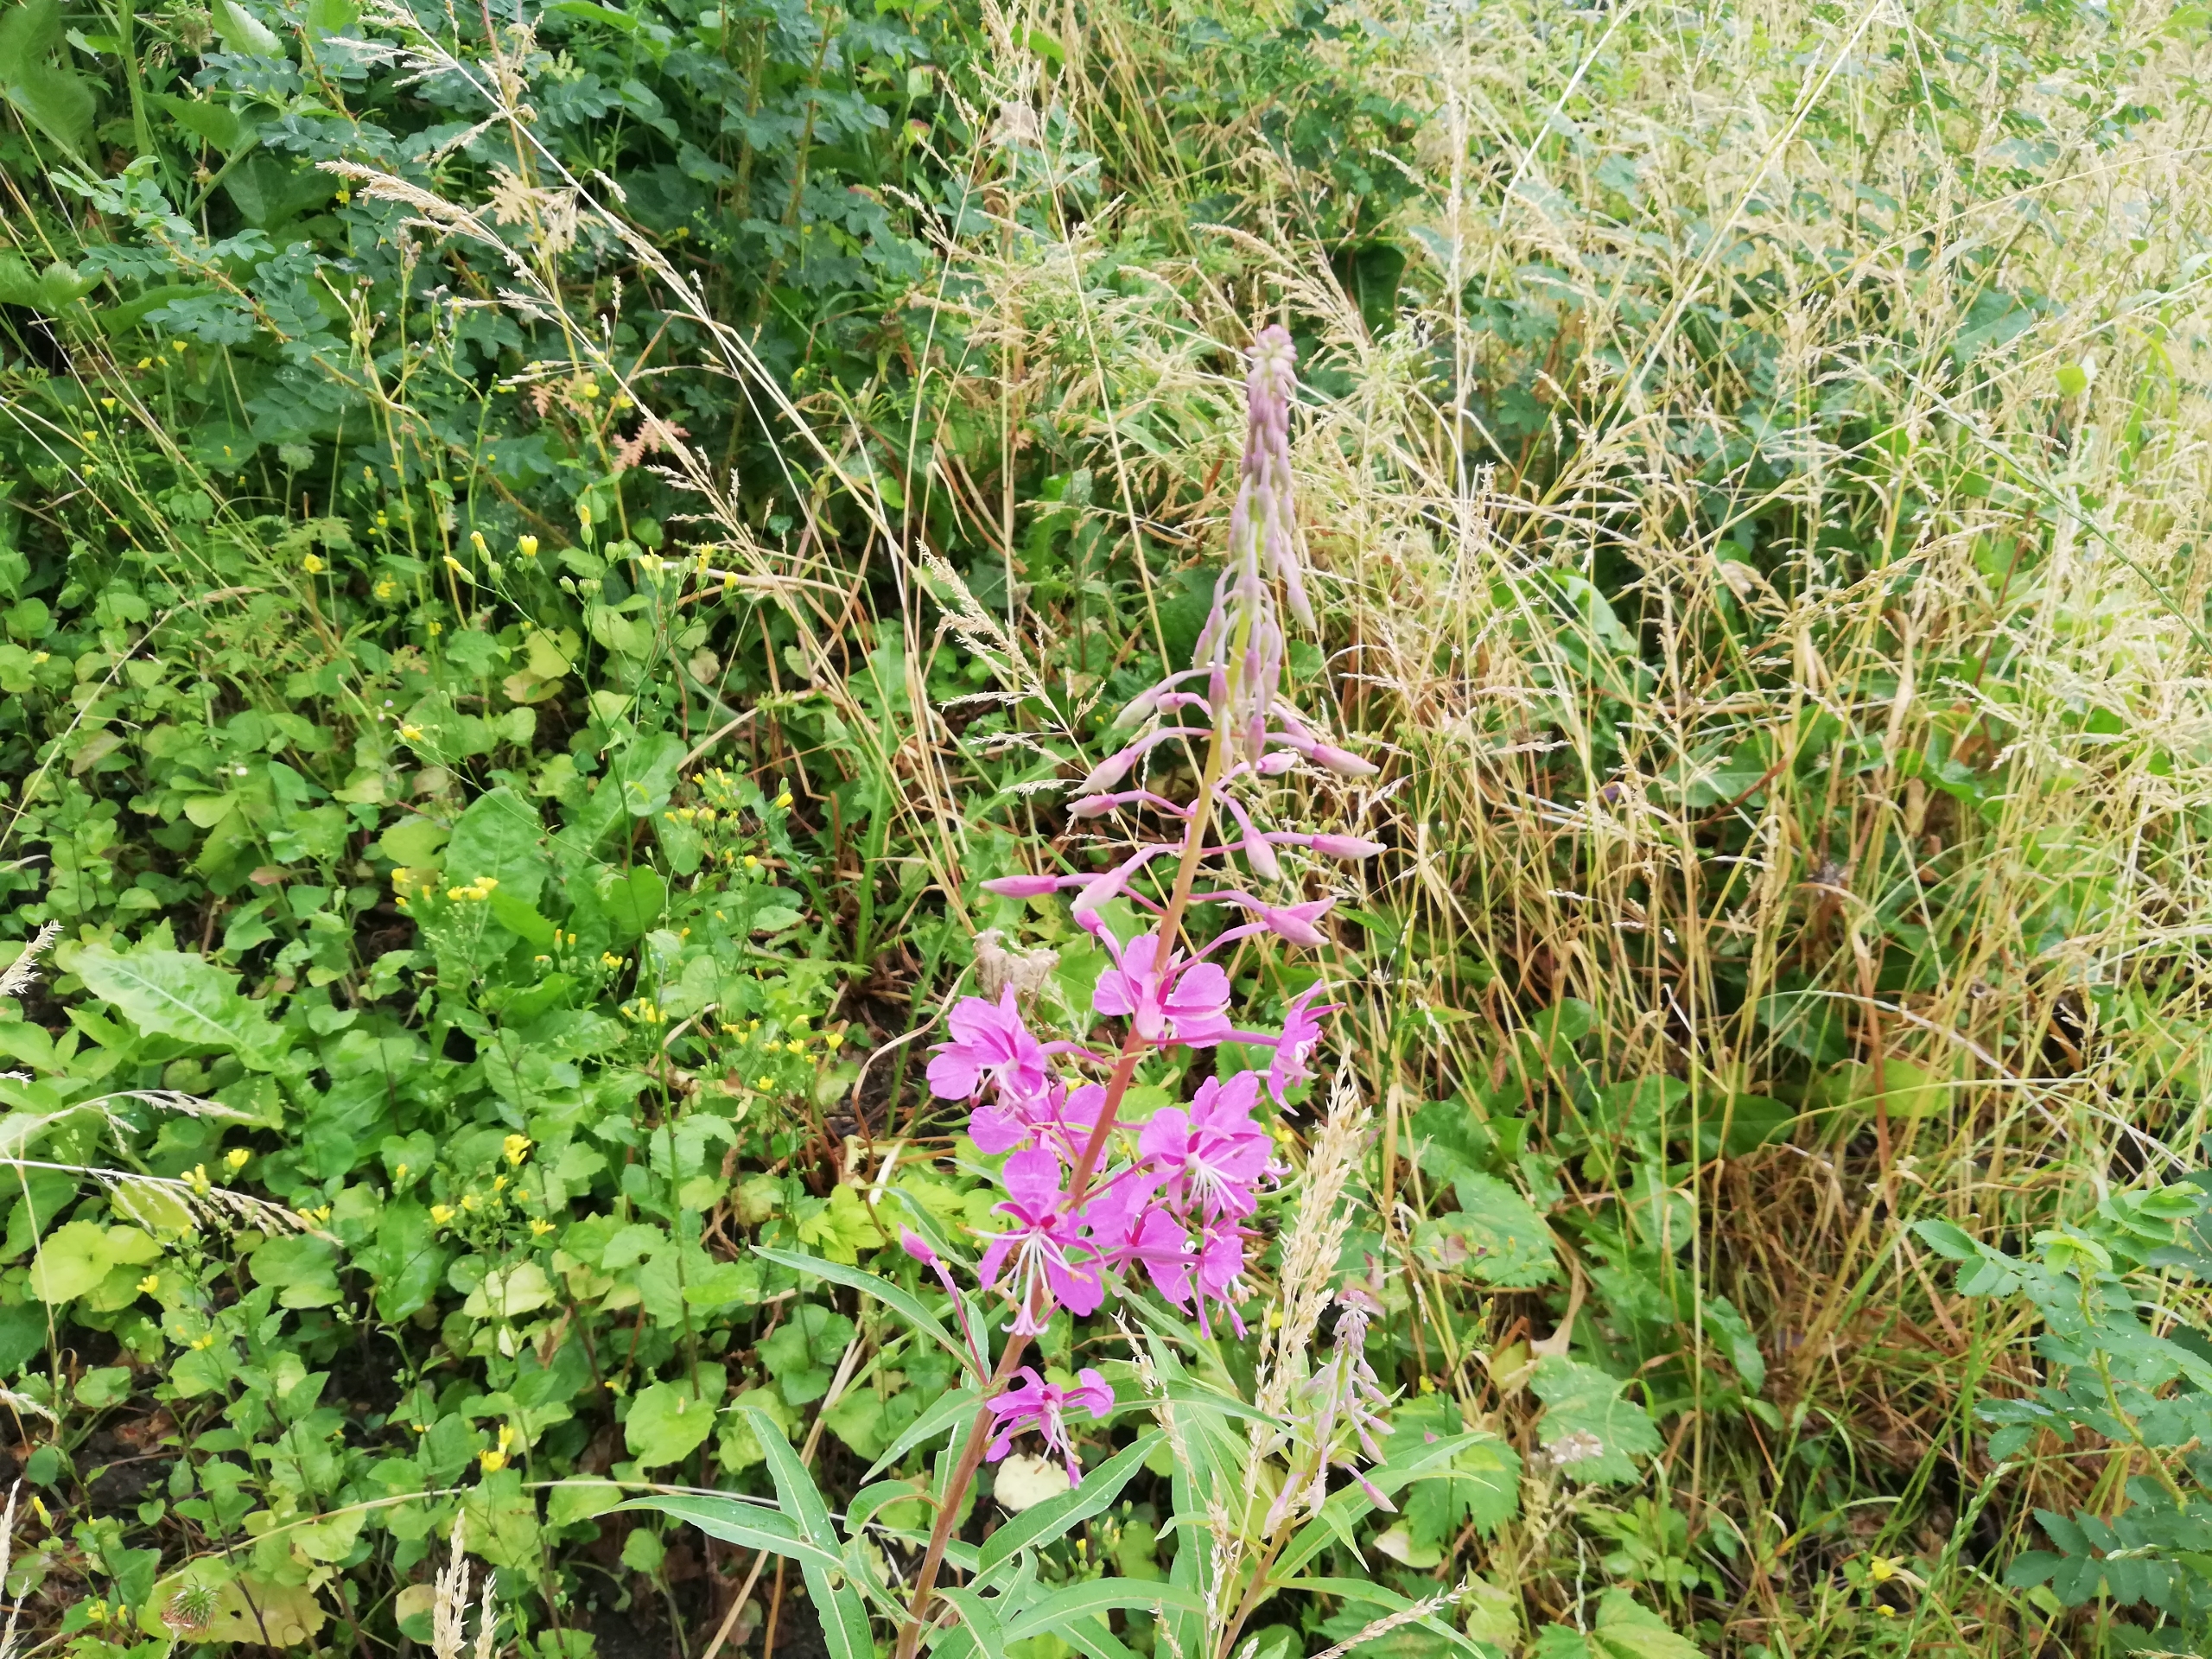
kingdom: Plantae
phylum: Tracheophyta
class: Magnoliopsida
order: Myrtales
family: Onagraceae
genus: Chamaenerion
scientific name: Chamaenerion angustifolium
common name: Gederams
